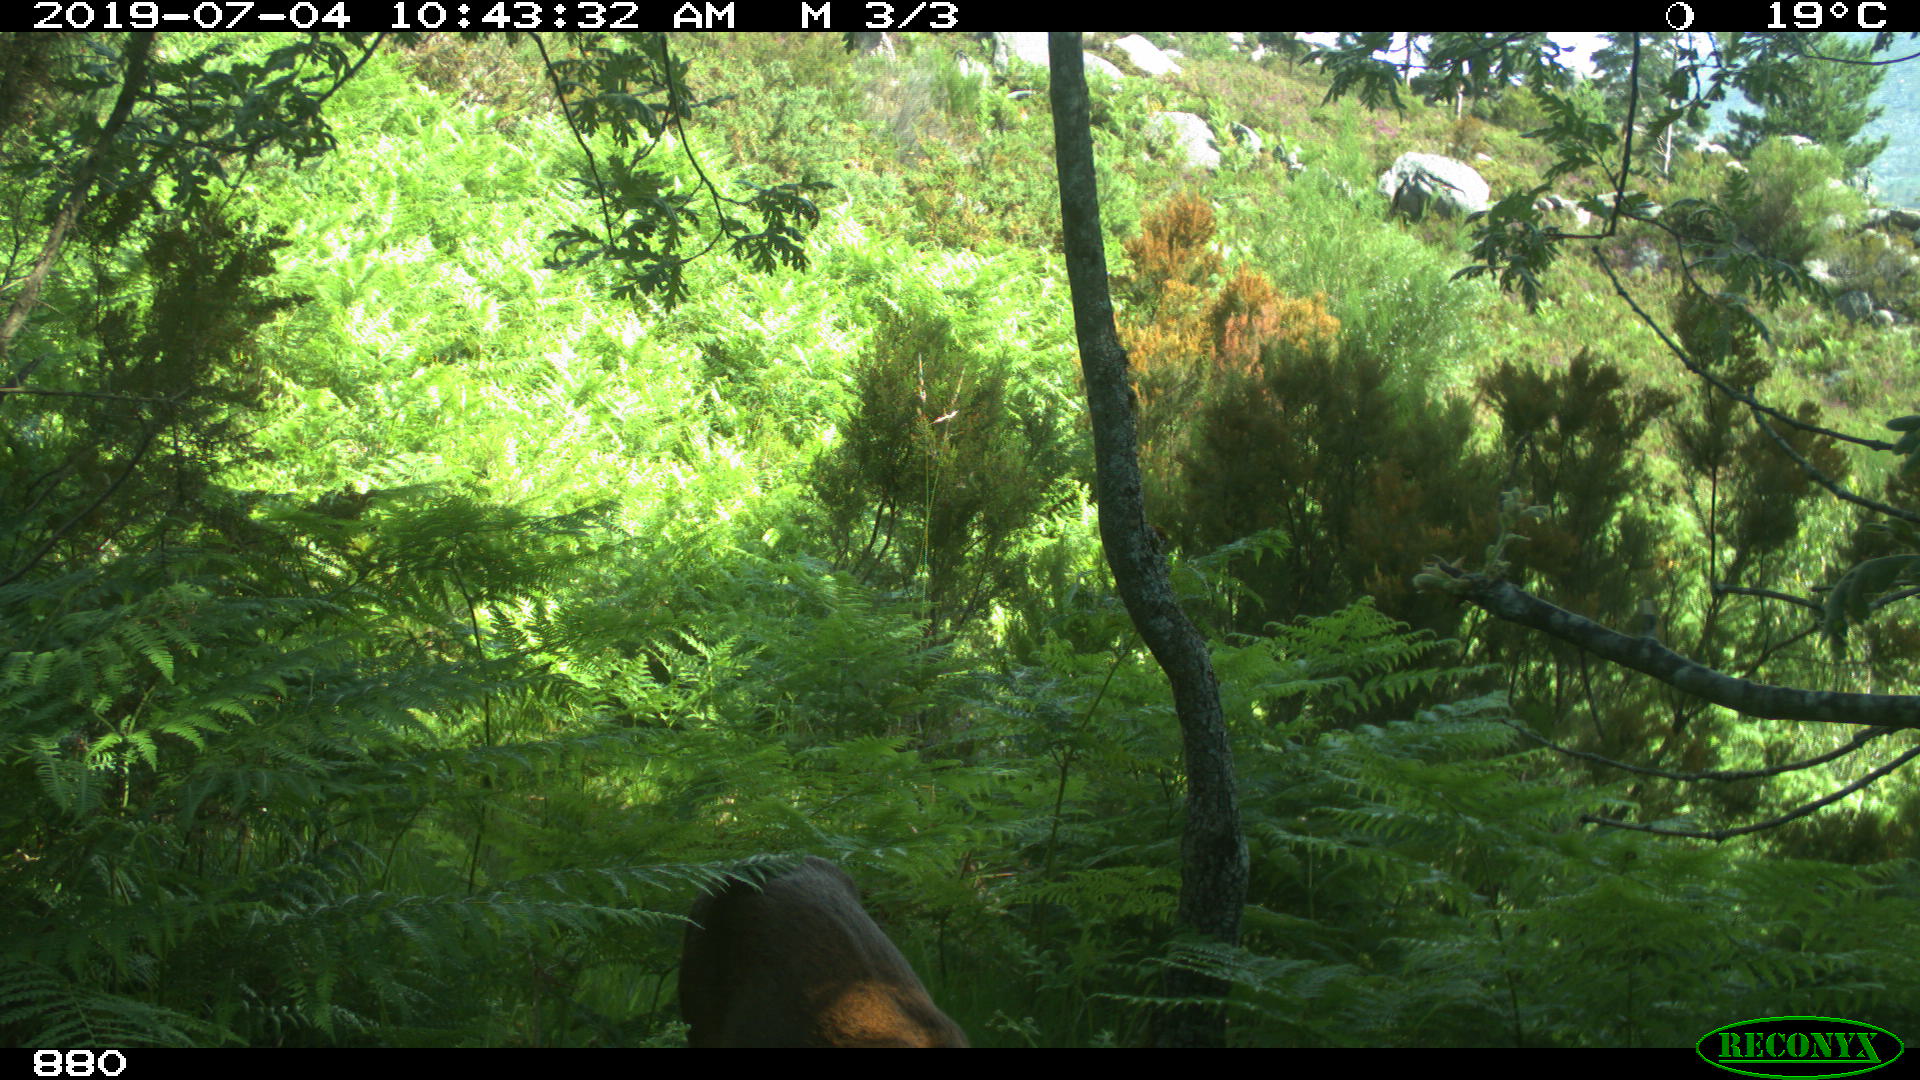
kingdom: Animalia
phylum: Chordata
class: Mammalia
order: Artiodactyla
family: Cervidae
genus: Capreolus
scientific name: Capreolus capreolus
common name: Western roe deer
